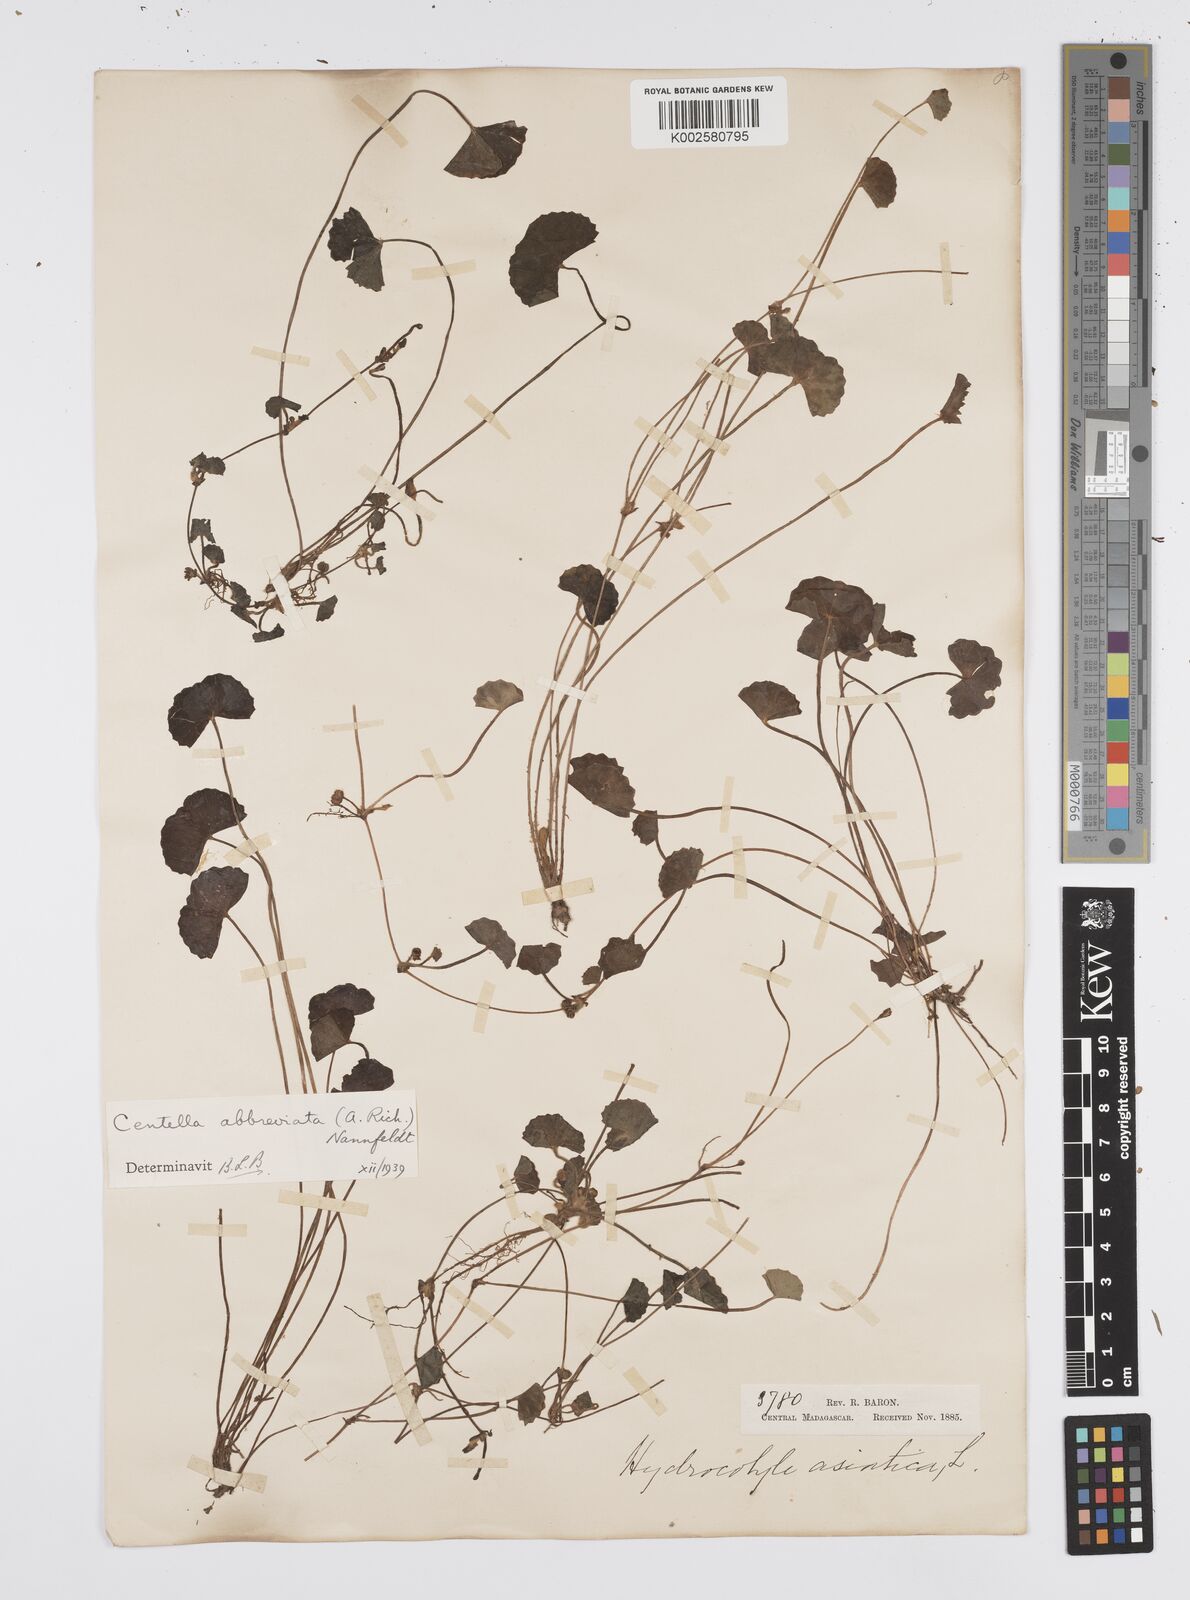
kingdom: Plantae
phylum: Tracheophyta
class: Magnoliopsida
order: Apiales
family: Apiaceae
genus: Centella
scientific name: Centella asiatica
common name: Spadeleaf
